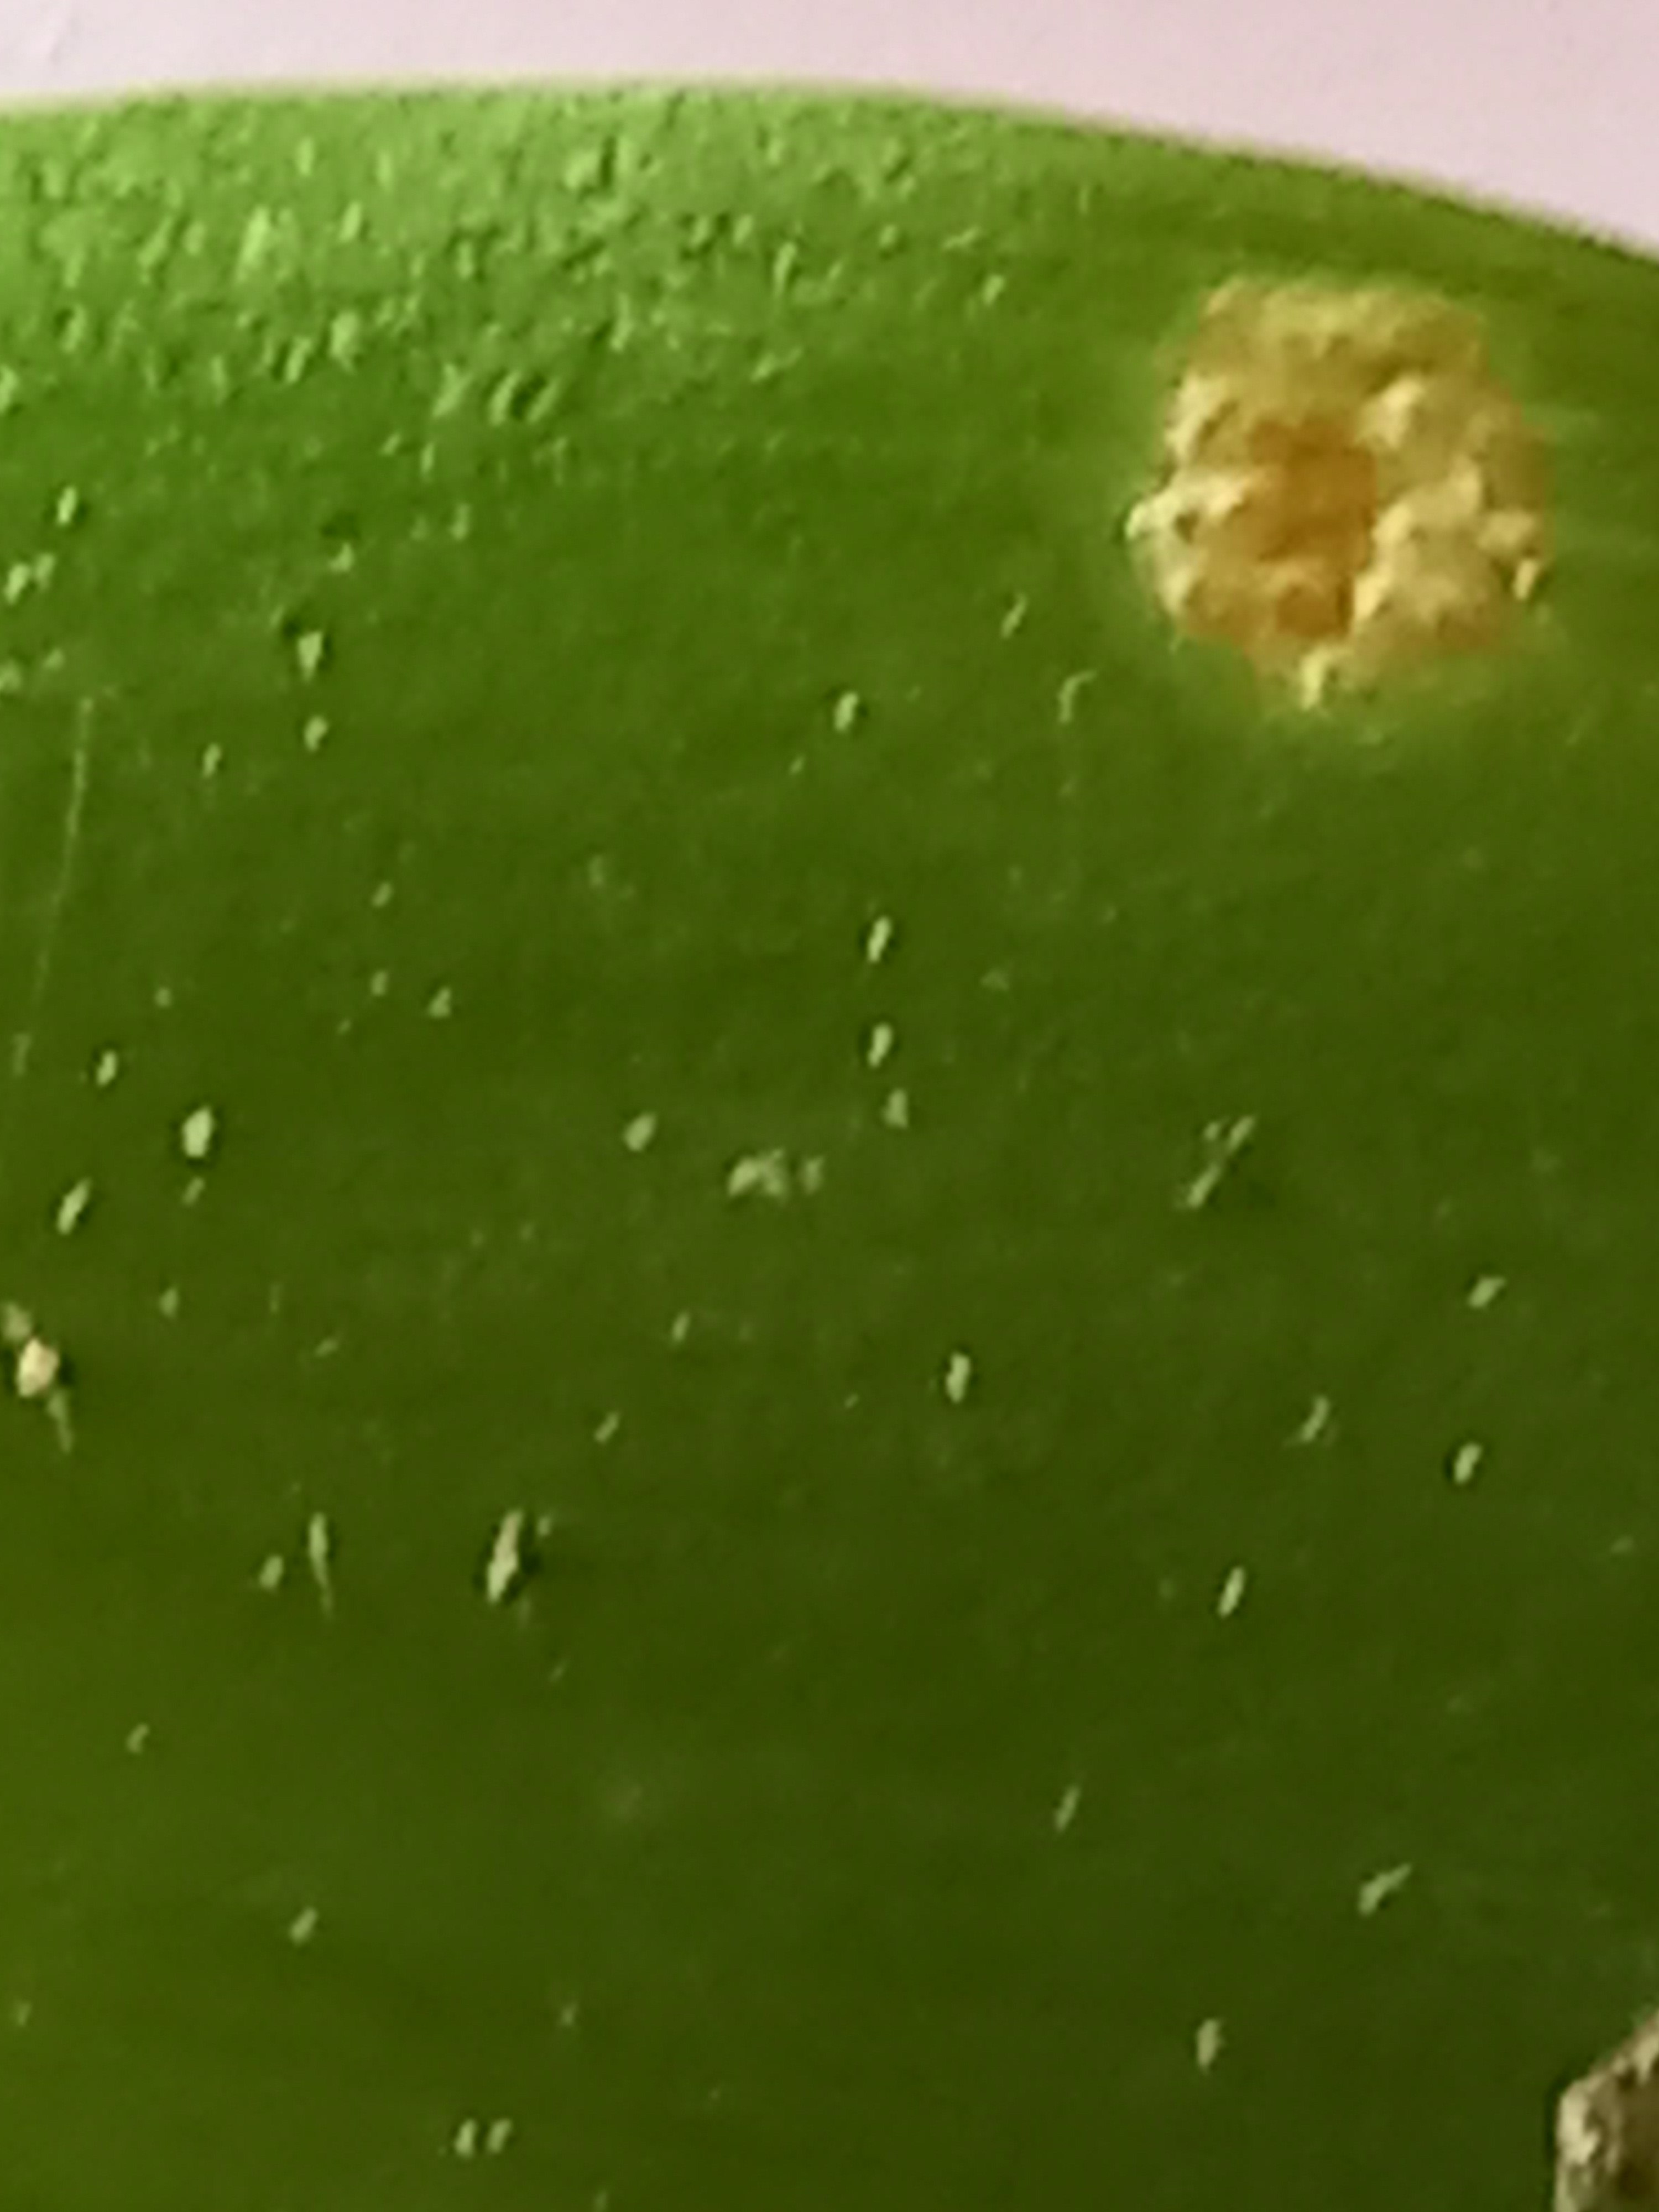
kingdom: Fungi
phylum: Basidiomycota
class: Pucciniomycetes
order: Pucciniales
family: Pucciniaceae
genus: Puccinia
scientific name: Puccinia sessilis
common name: Arum rust
